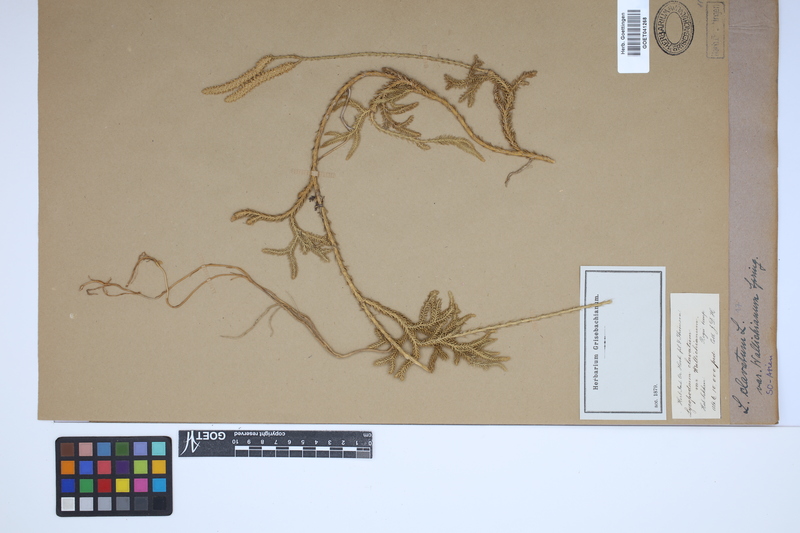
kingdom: Plantae
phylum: Tracheophyta
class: Lycopodiopsida
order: Lycopodiales
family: Lycopodiaceae
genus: Lycopodium
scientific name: Lycopodium clavatum
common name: Stag's-horn clubmoss
